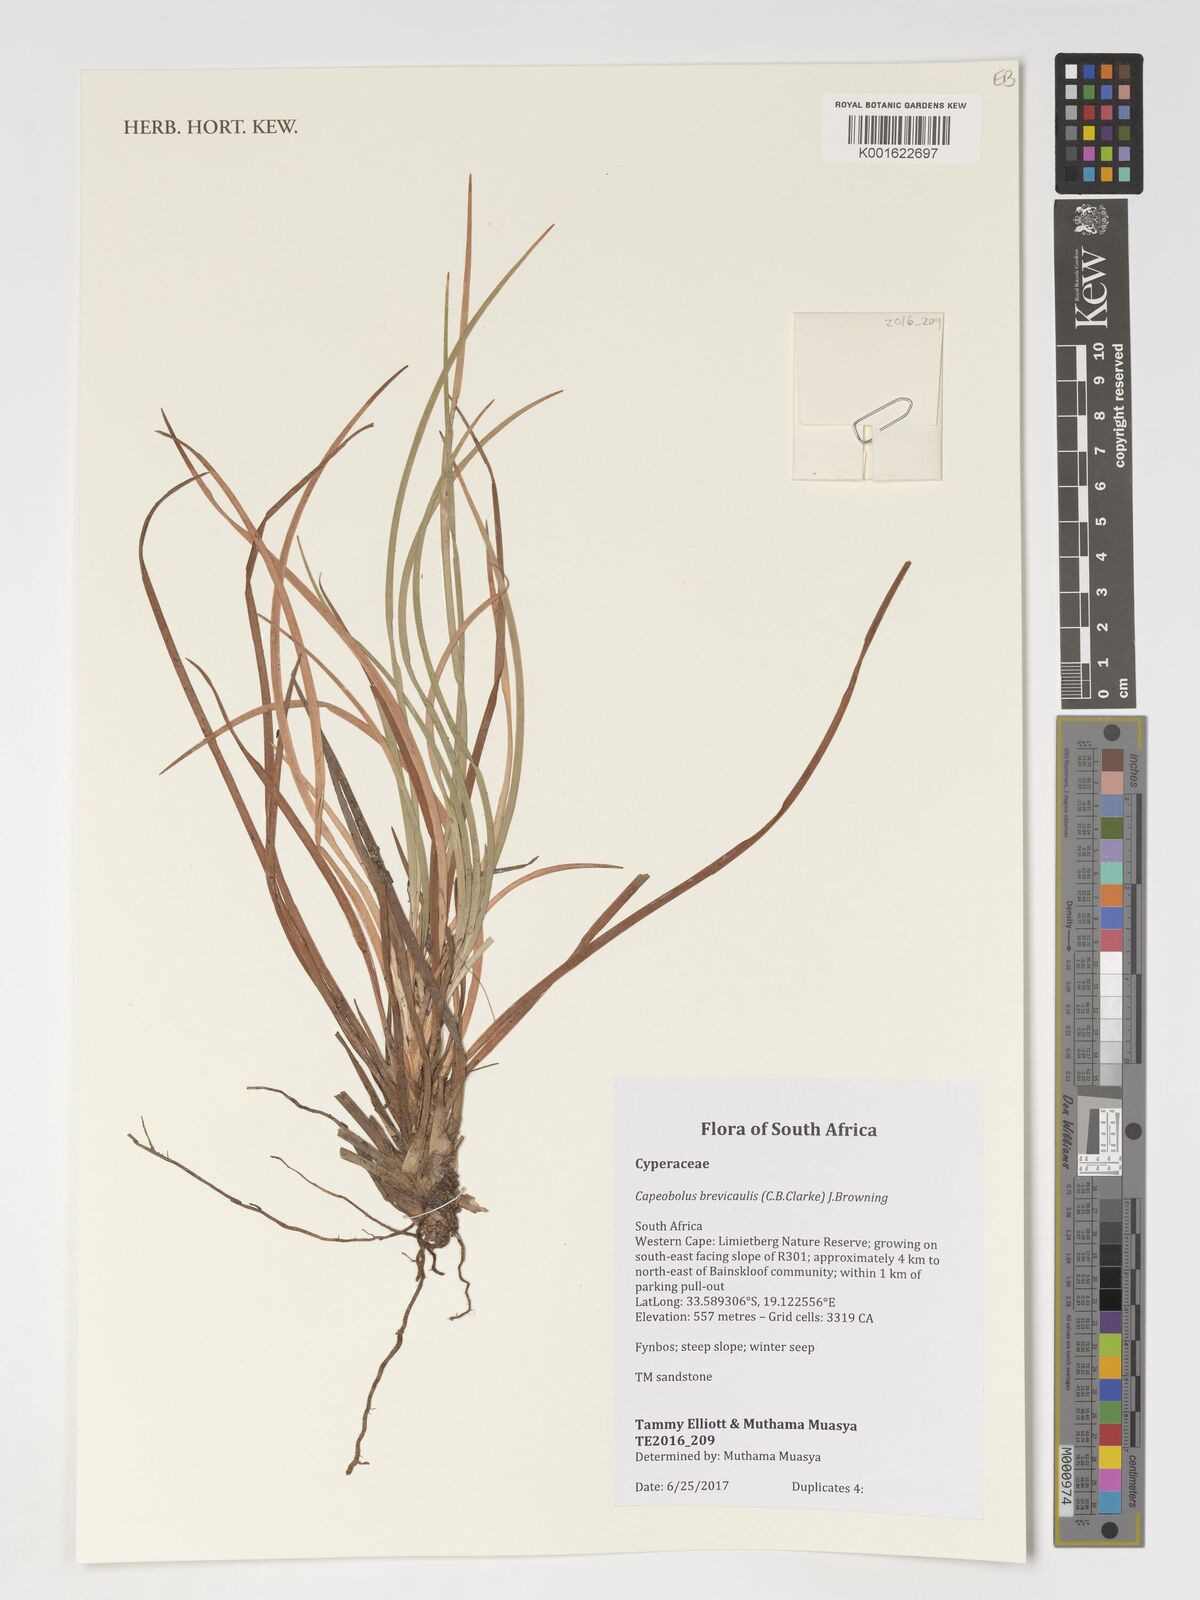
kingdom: Plantae
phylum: Tracheophyta
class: Liliopsida
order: Poales
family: Cyperaceae
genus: Capeobolus
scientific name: Capeobolus brevicaulis
